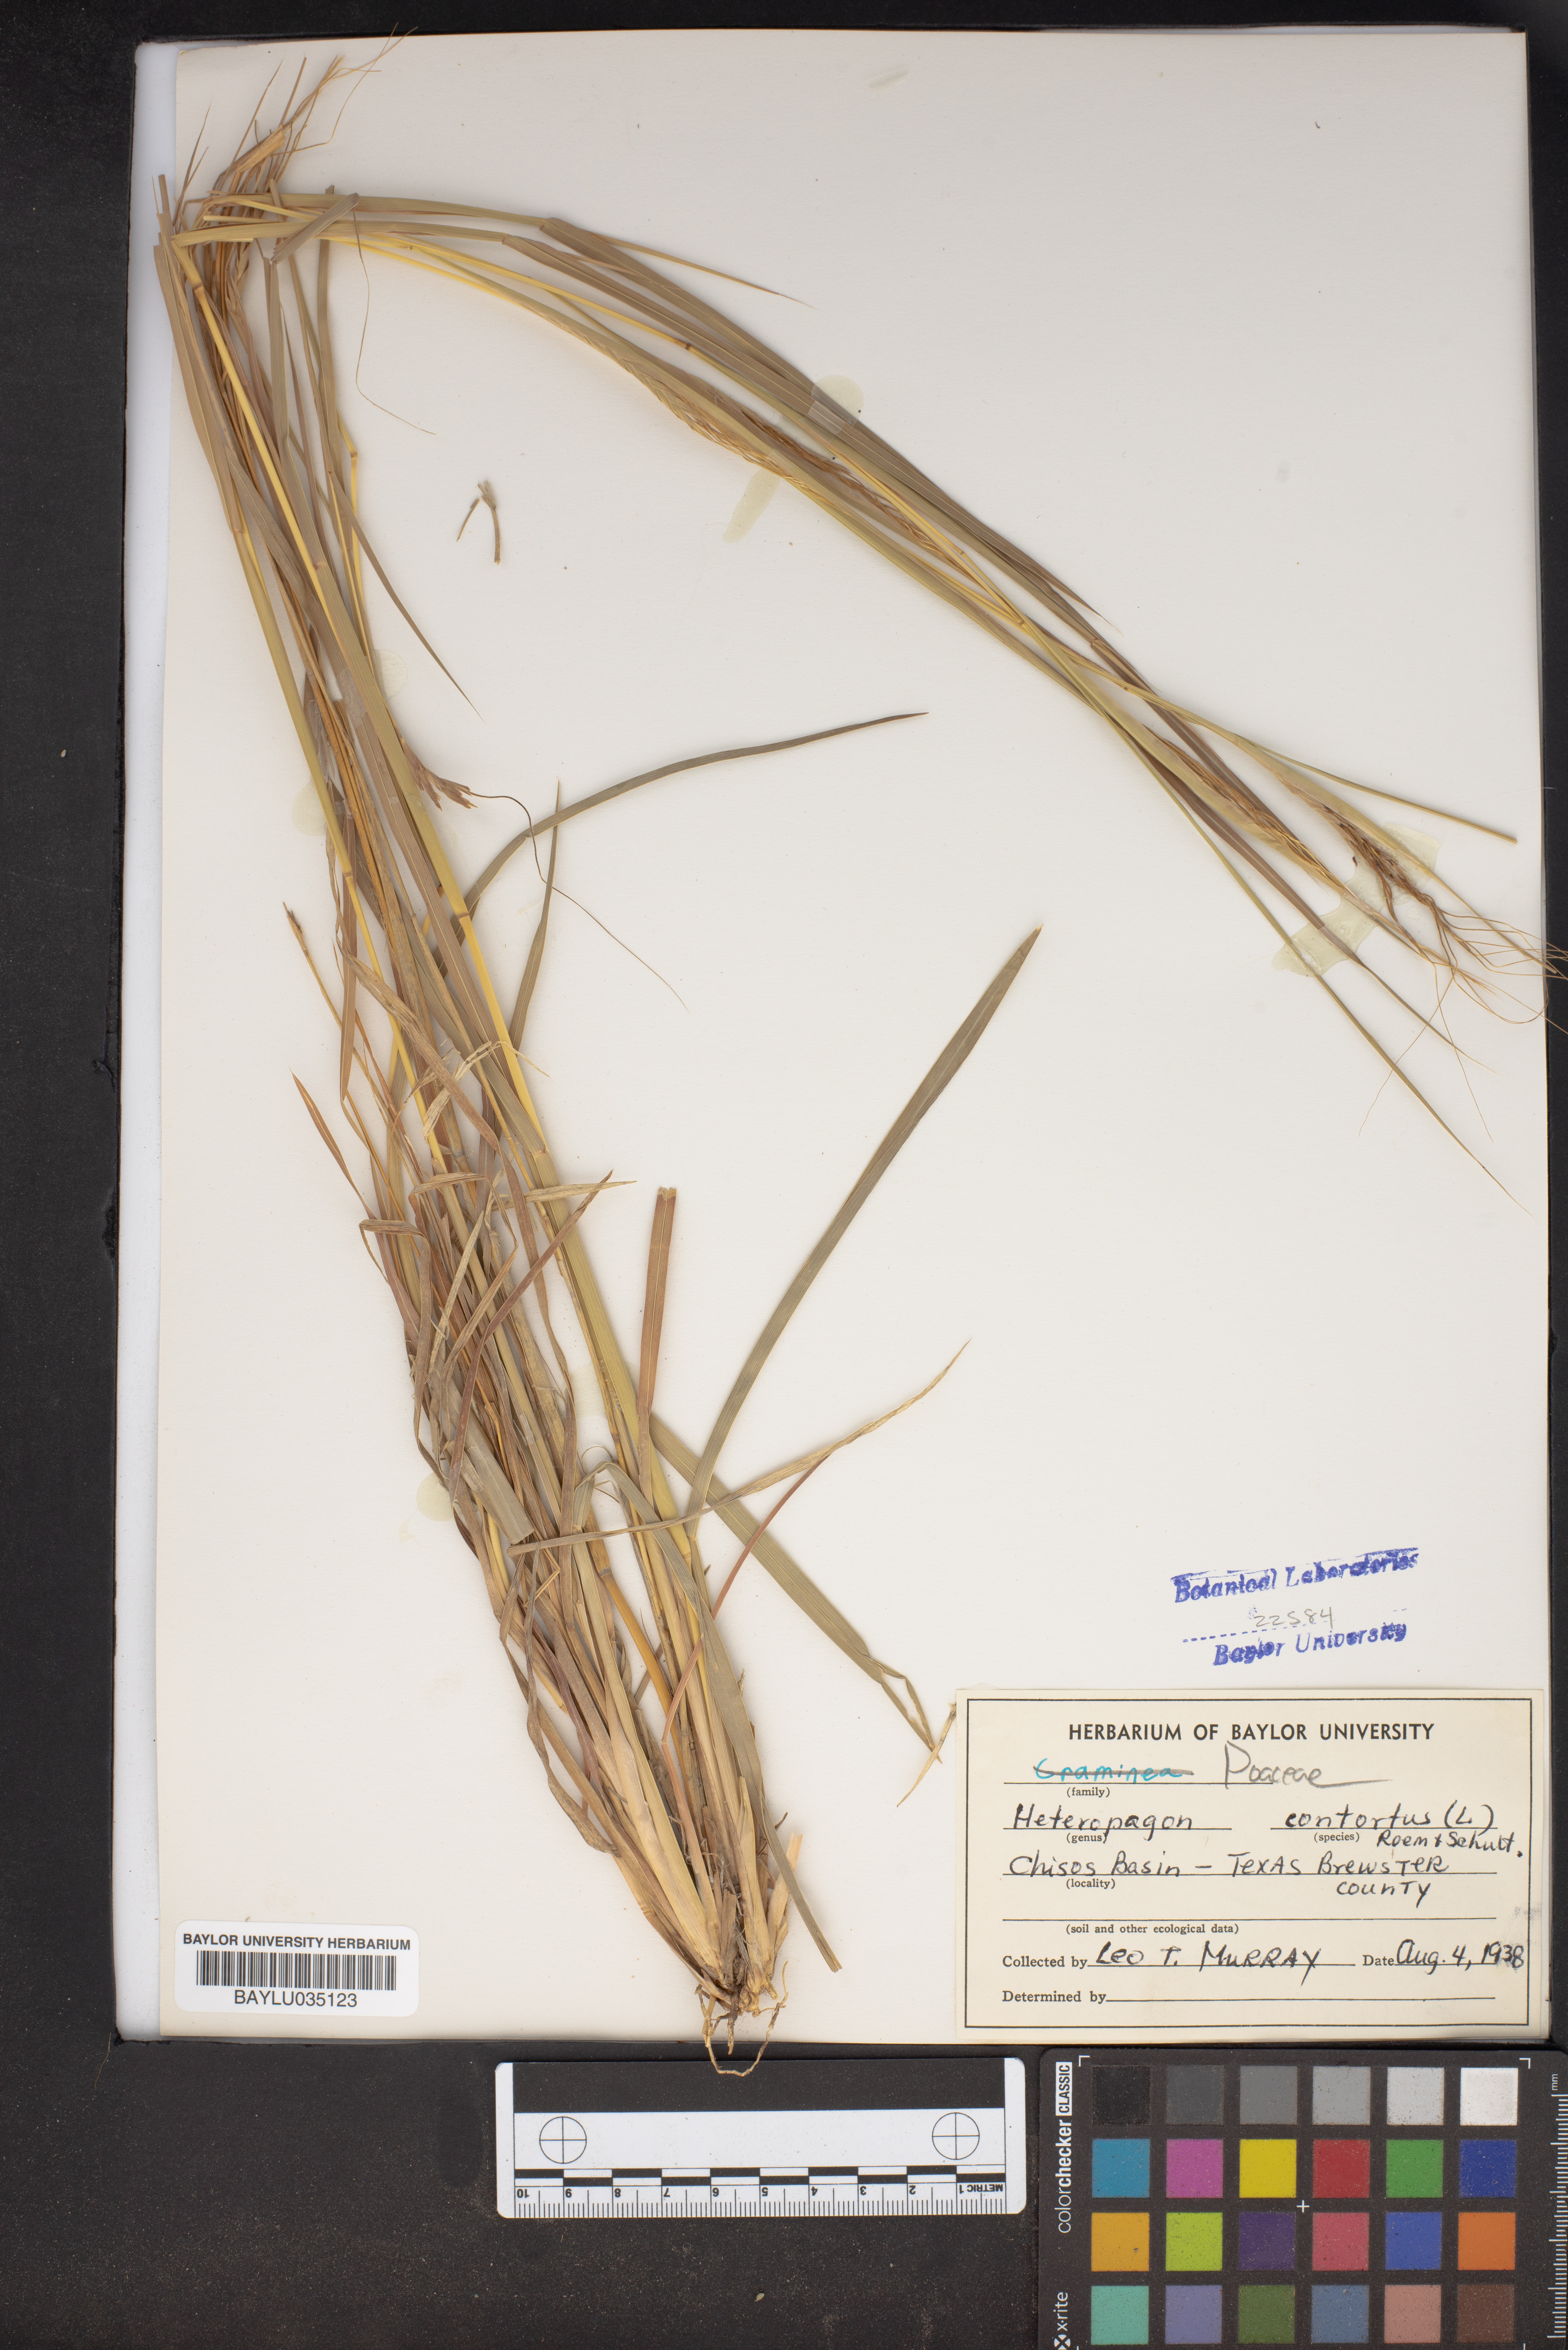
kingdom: Plantae
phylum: Tracheophyta
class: Liliopsida
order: Poales
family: Poaceae
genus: Heteropogon
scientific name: Heteropogon contortus
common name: Tanglehead
